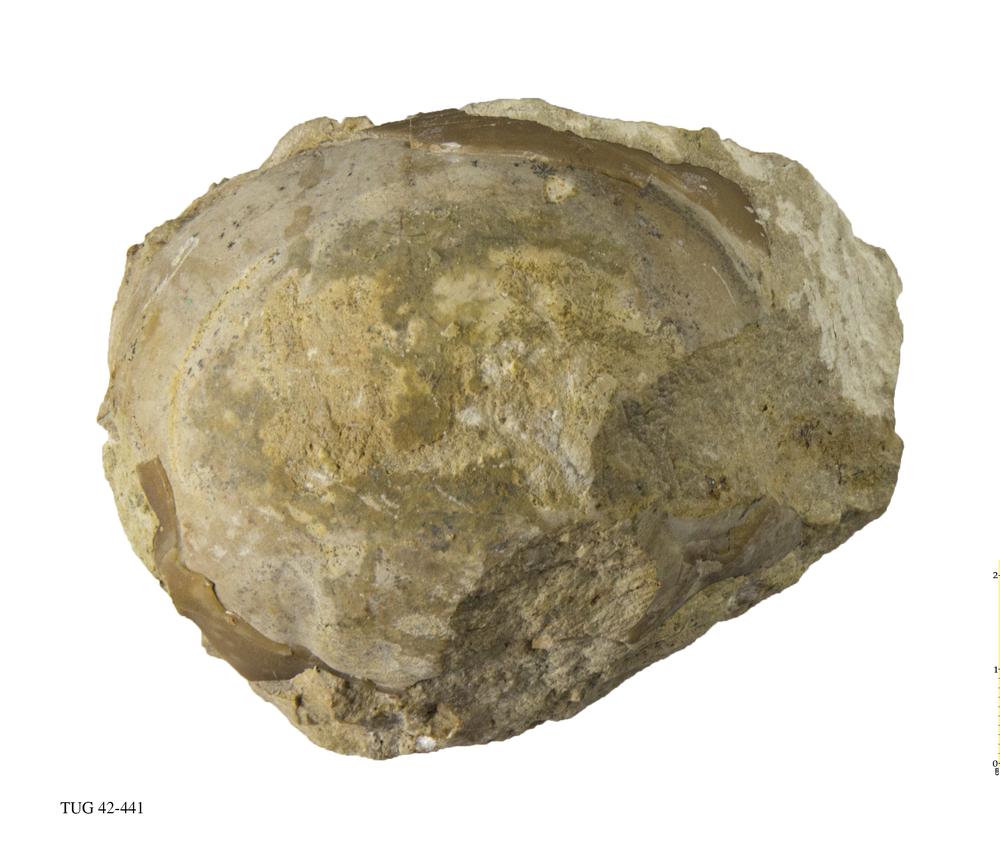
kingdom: Animalia
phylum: Arthropoda
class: Trilobita
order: Asaphida
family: Asaphidae
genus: Asaphus
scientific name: Asaphus
